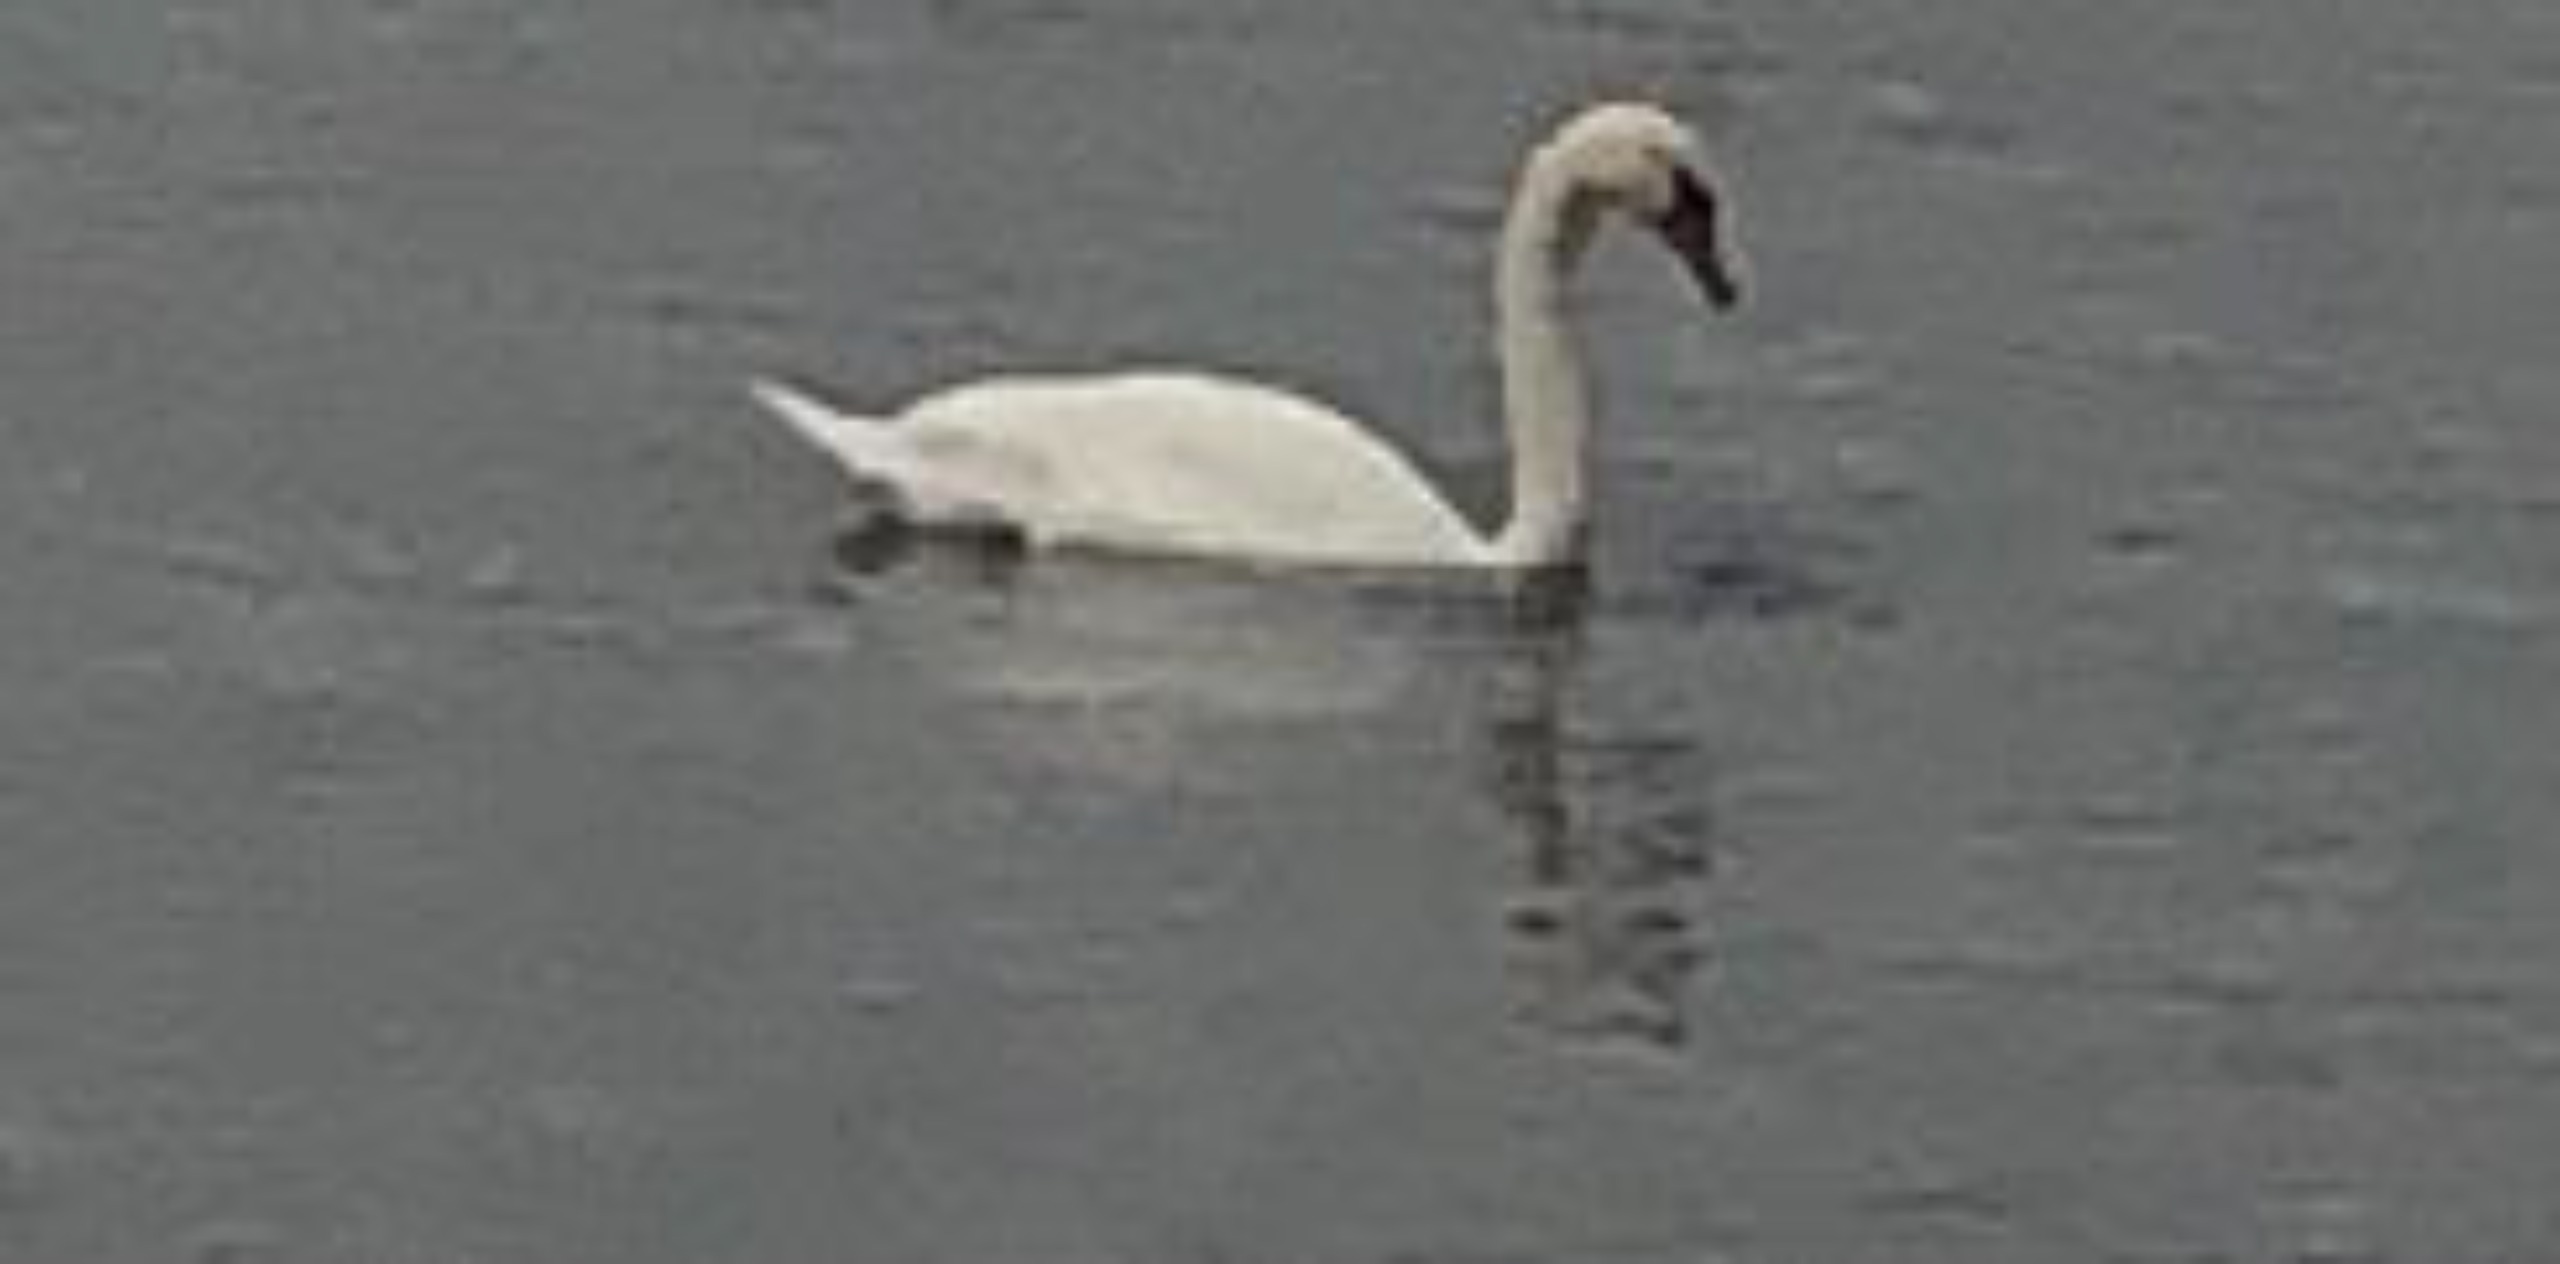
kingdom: Animalia
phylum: Chordata
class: Aves
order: Anseriformes
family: Anatidae
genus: Cygnus
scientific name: Cygnus olor
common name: Knopsvane
